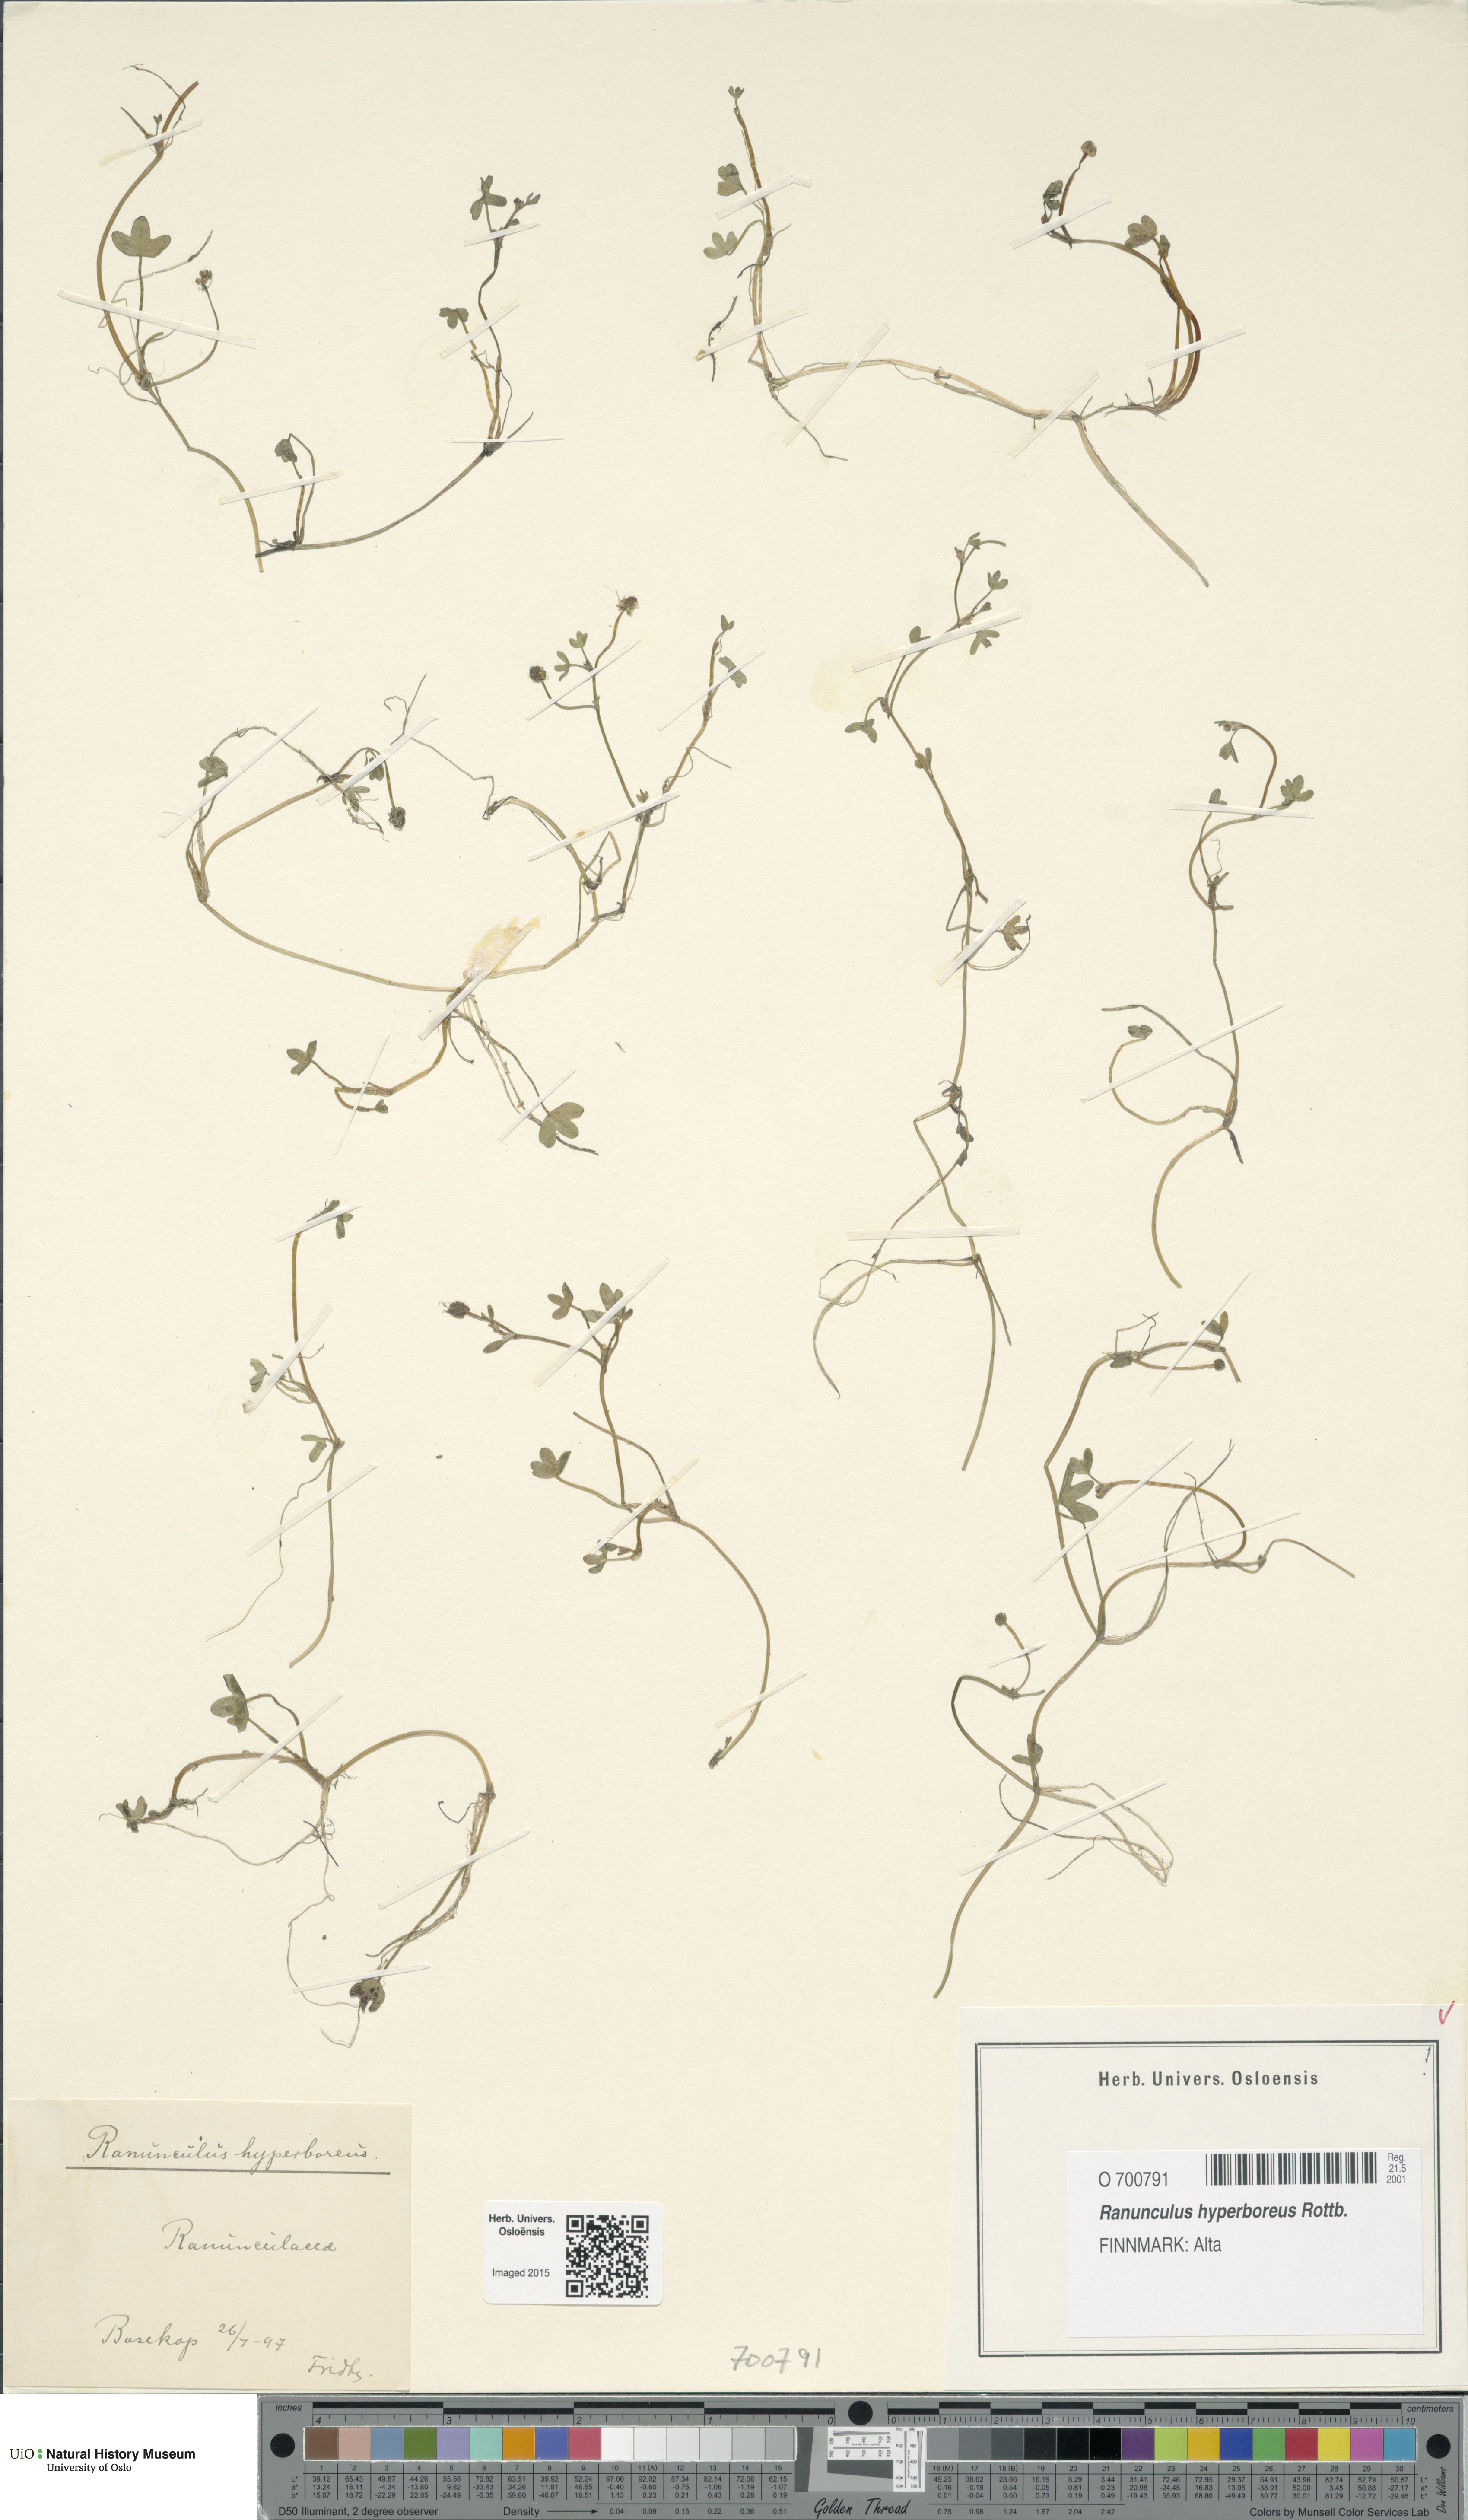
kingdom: Plantae
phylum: Tracheophyta
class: Magnoliopsida
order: Ranunculales
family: Ranunculaceae
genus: Ranunculus
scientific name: Ranunculus hyperboreus
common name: Arctic buttercup
